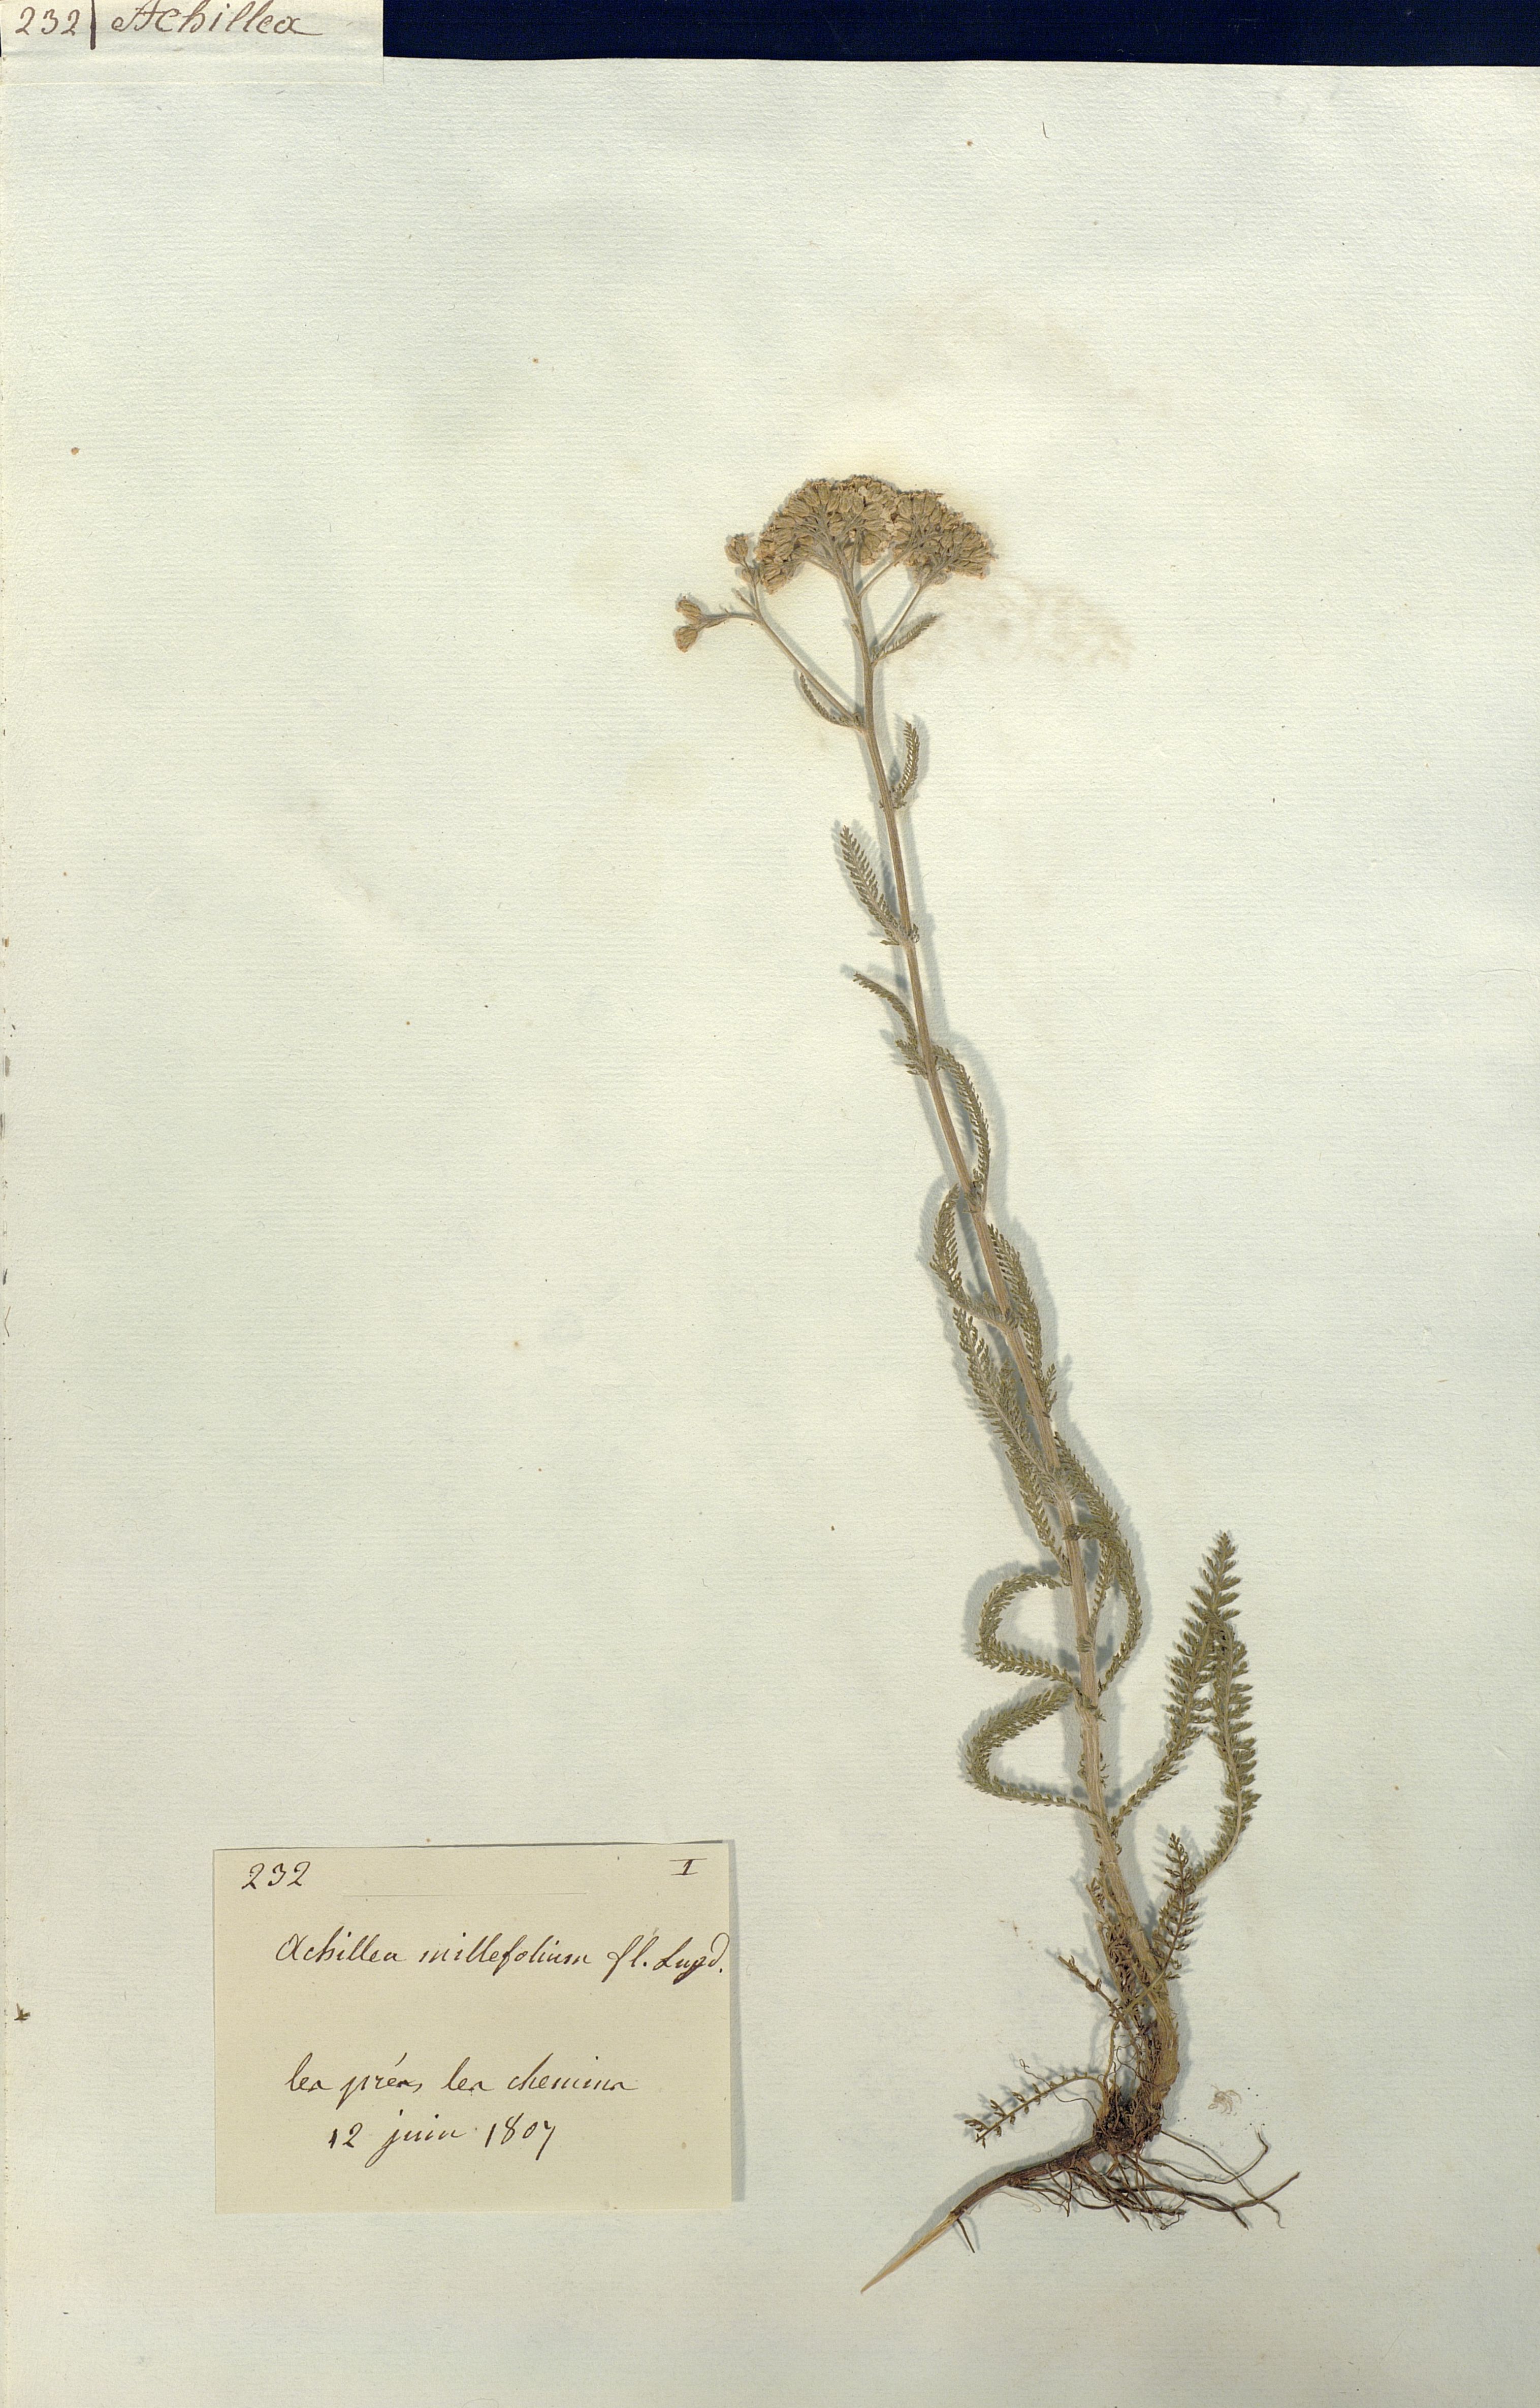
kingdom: Plantae
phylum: Tracheophyta
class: Magnoliopsida
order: Asterales
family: Asteraceae
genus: Achillea
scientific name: Achillea millefolium
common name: Yarrow
